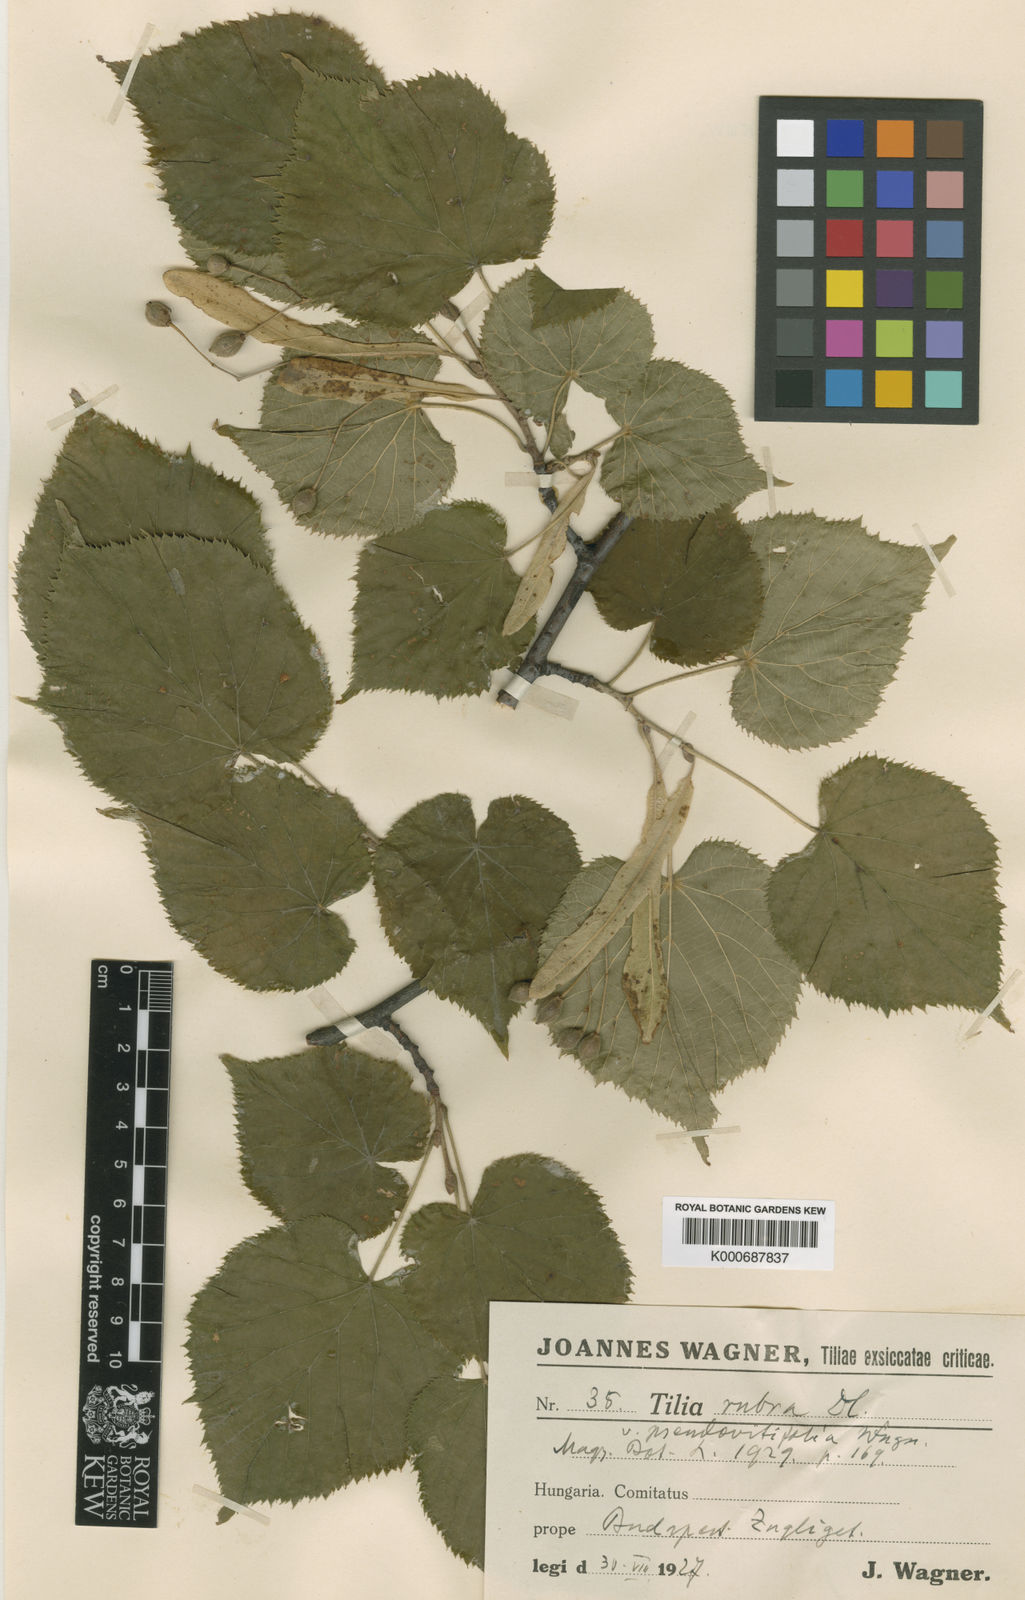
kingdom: Plantae
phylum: Tracheophyta
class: Magnoliopsida
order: Malvales
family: Malvaceae
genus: Tilia
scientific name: Tilia platyphyllos
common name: Large-leaved lime
